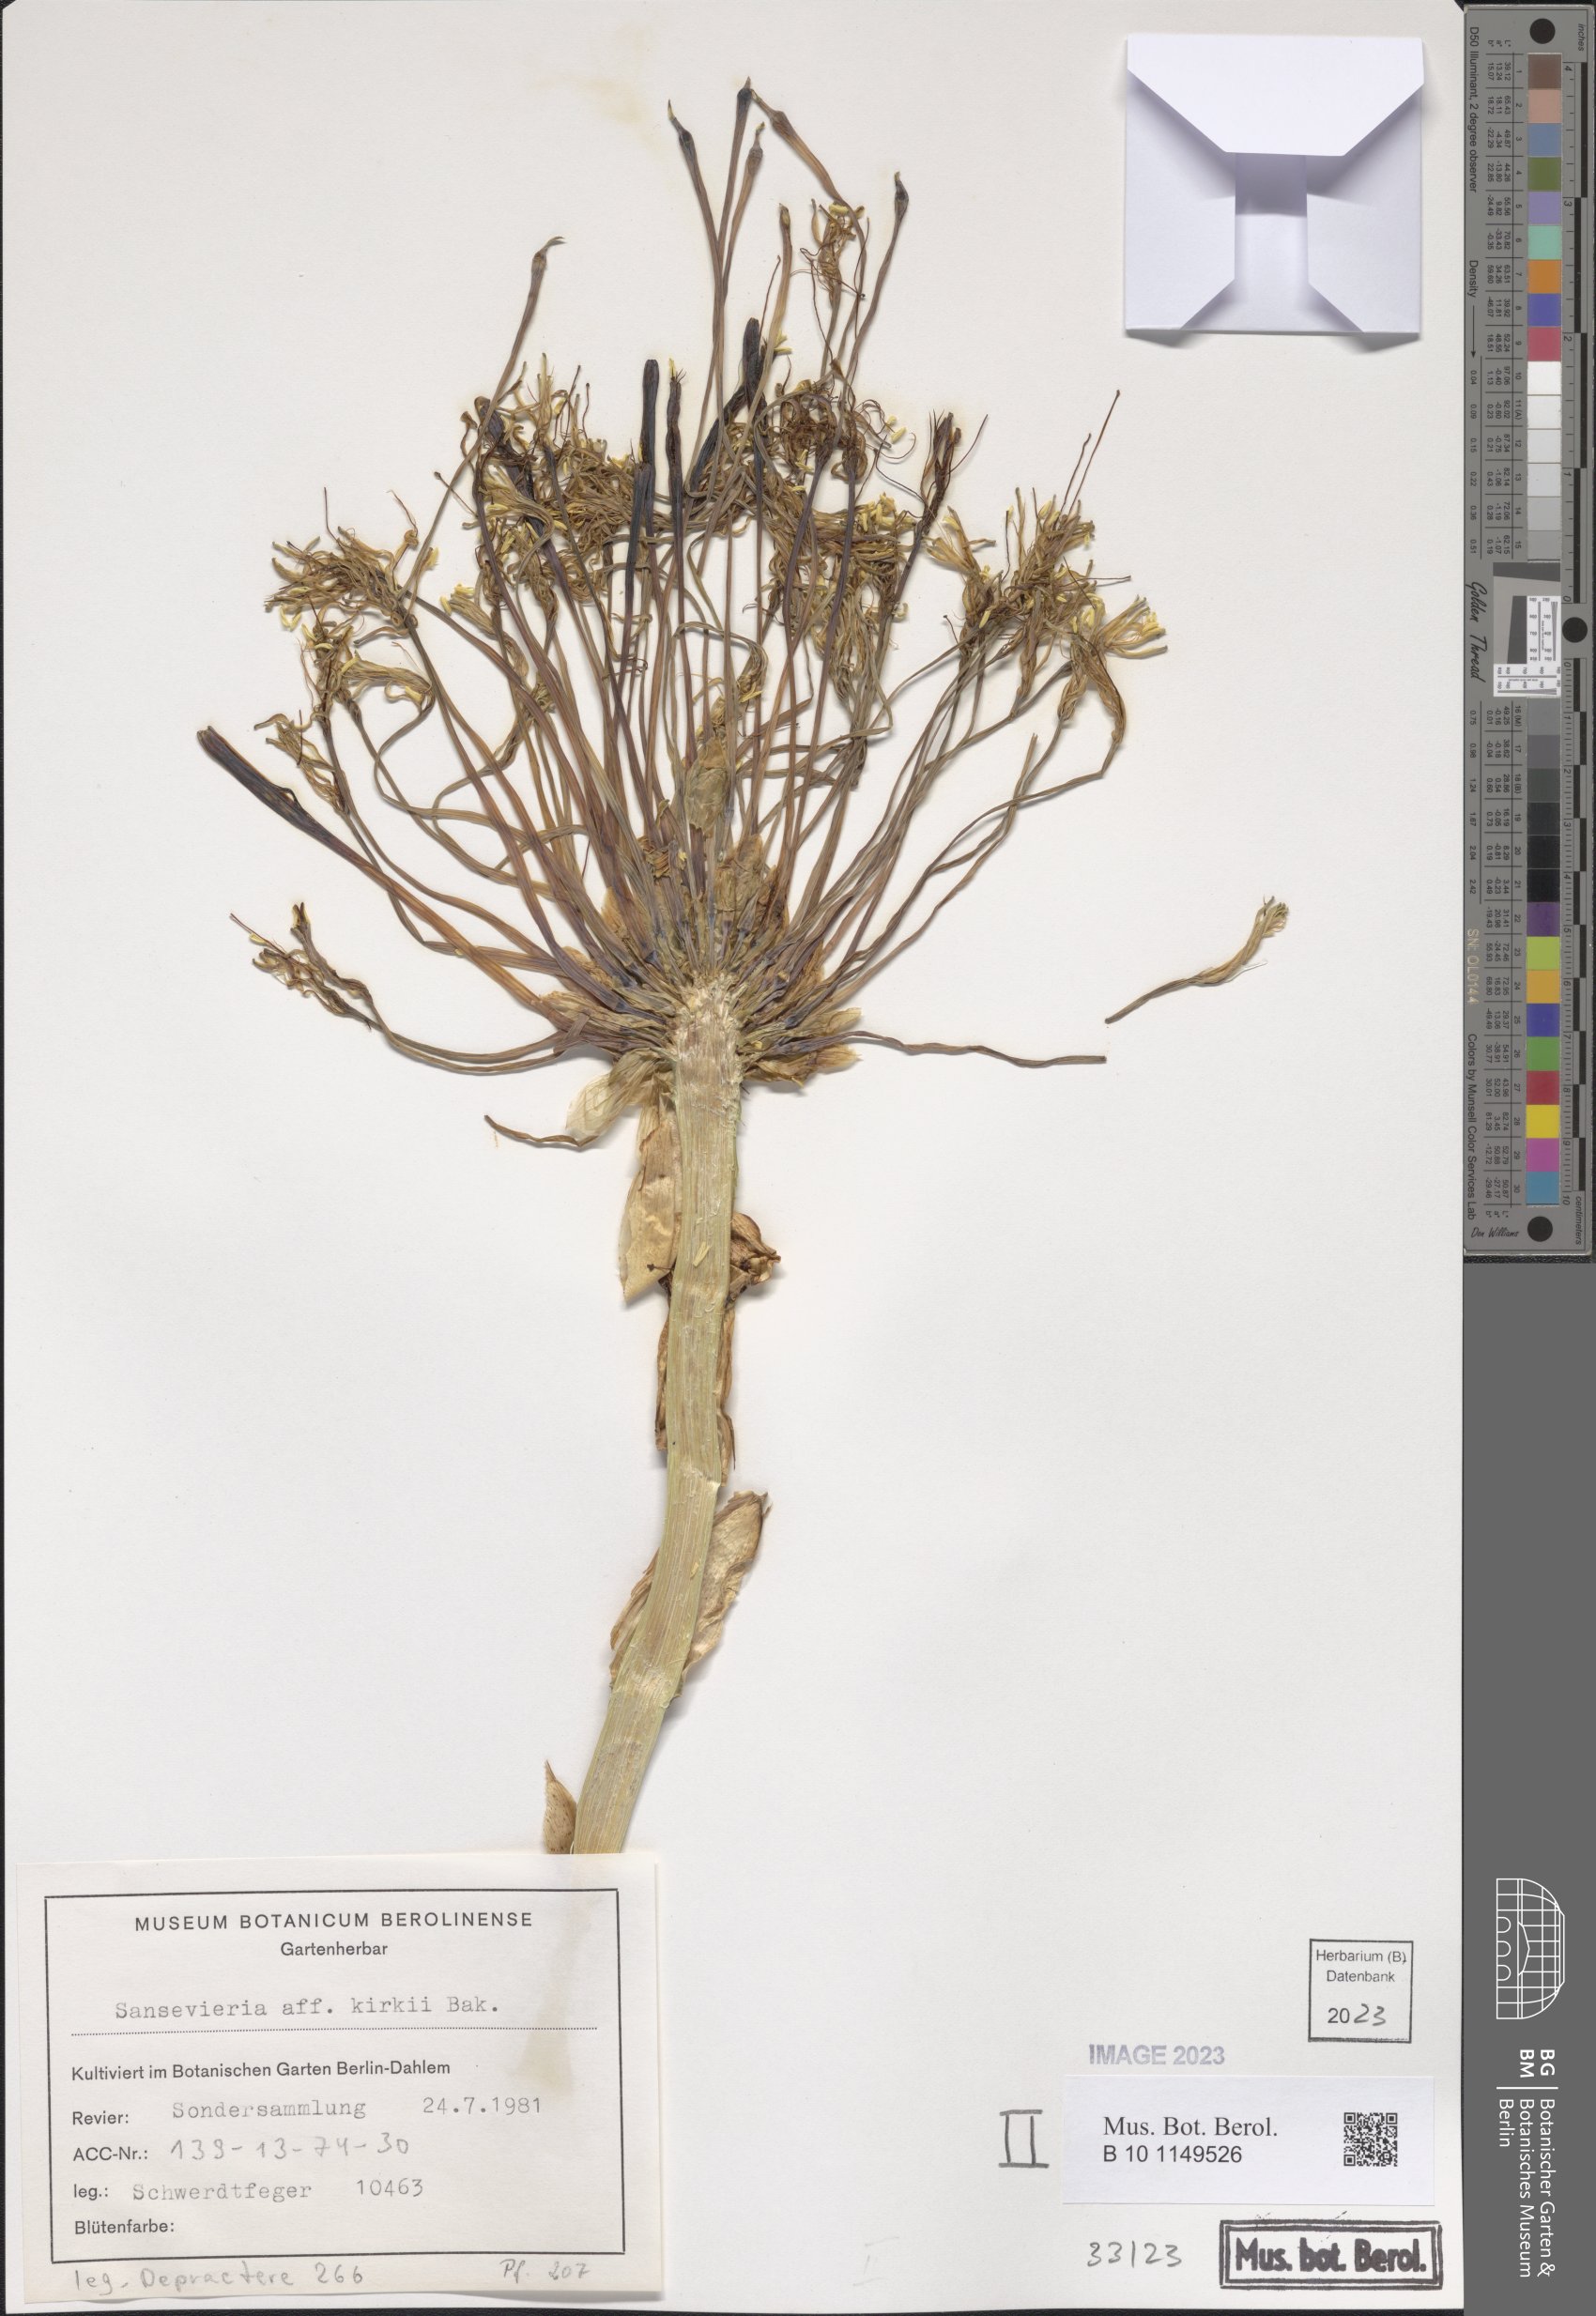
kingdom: Plantae
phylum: Tracheophyta
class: Liliopsida
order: Asparagales
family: Asparagaceae
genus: Dracaena
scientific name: Dracaena pethera
